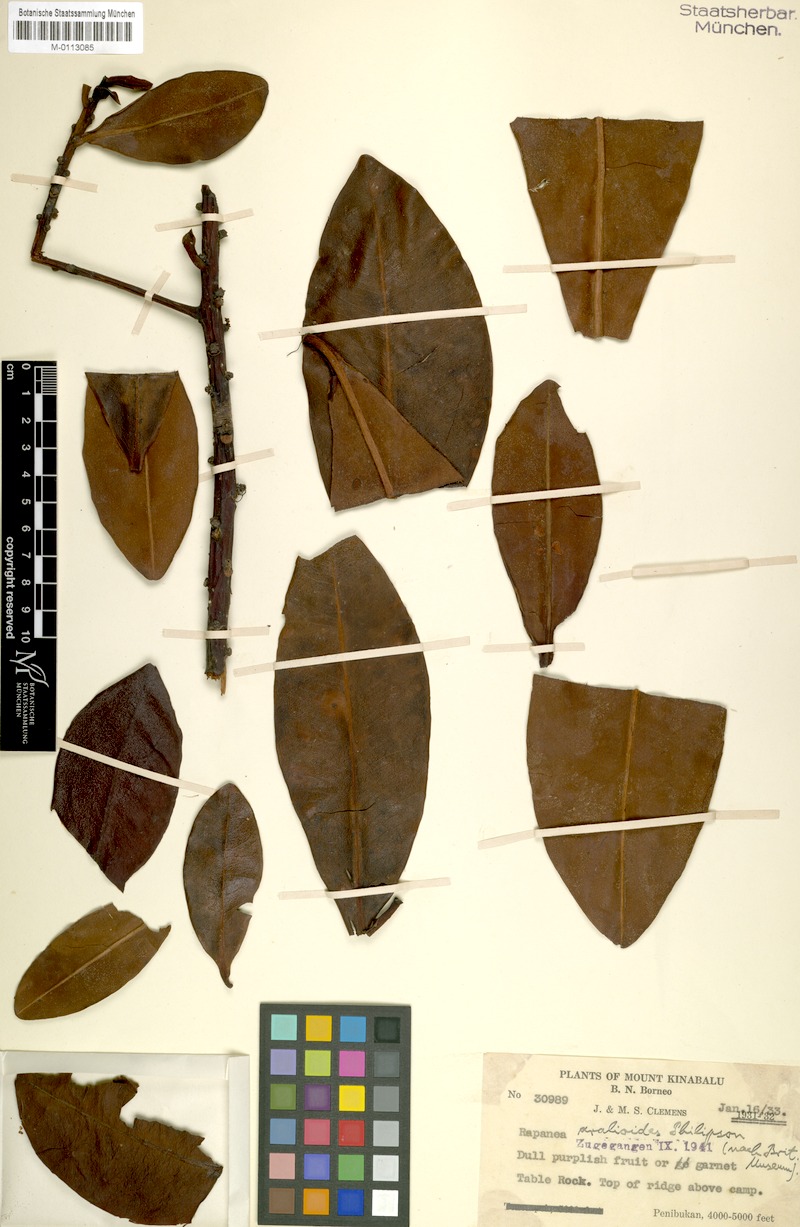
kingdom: Plantae
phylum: Tracheophyta
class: Magnoliopsida
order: Ericales
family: Primulaceae
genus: Myrsine
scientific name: Myrsine aralioides
